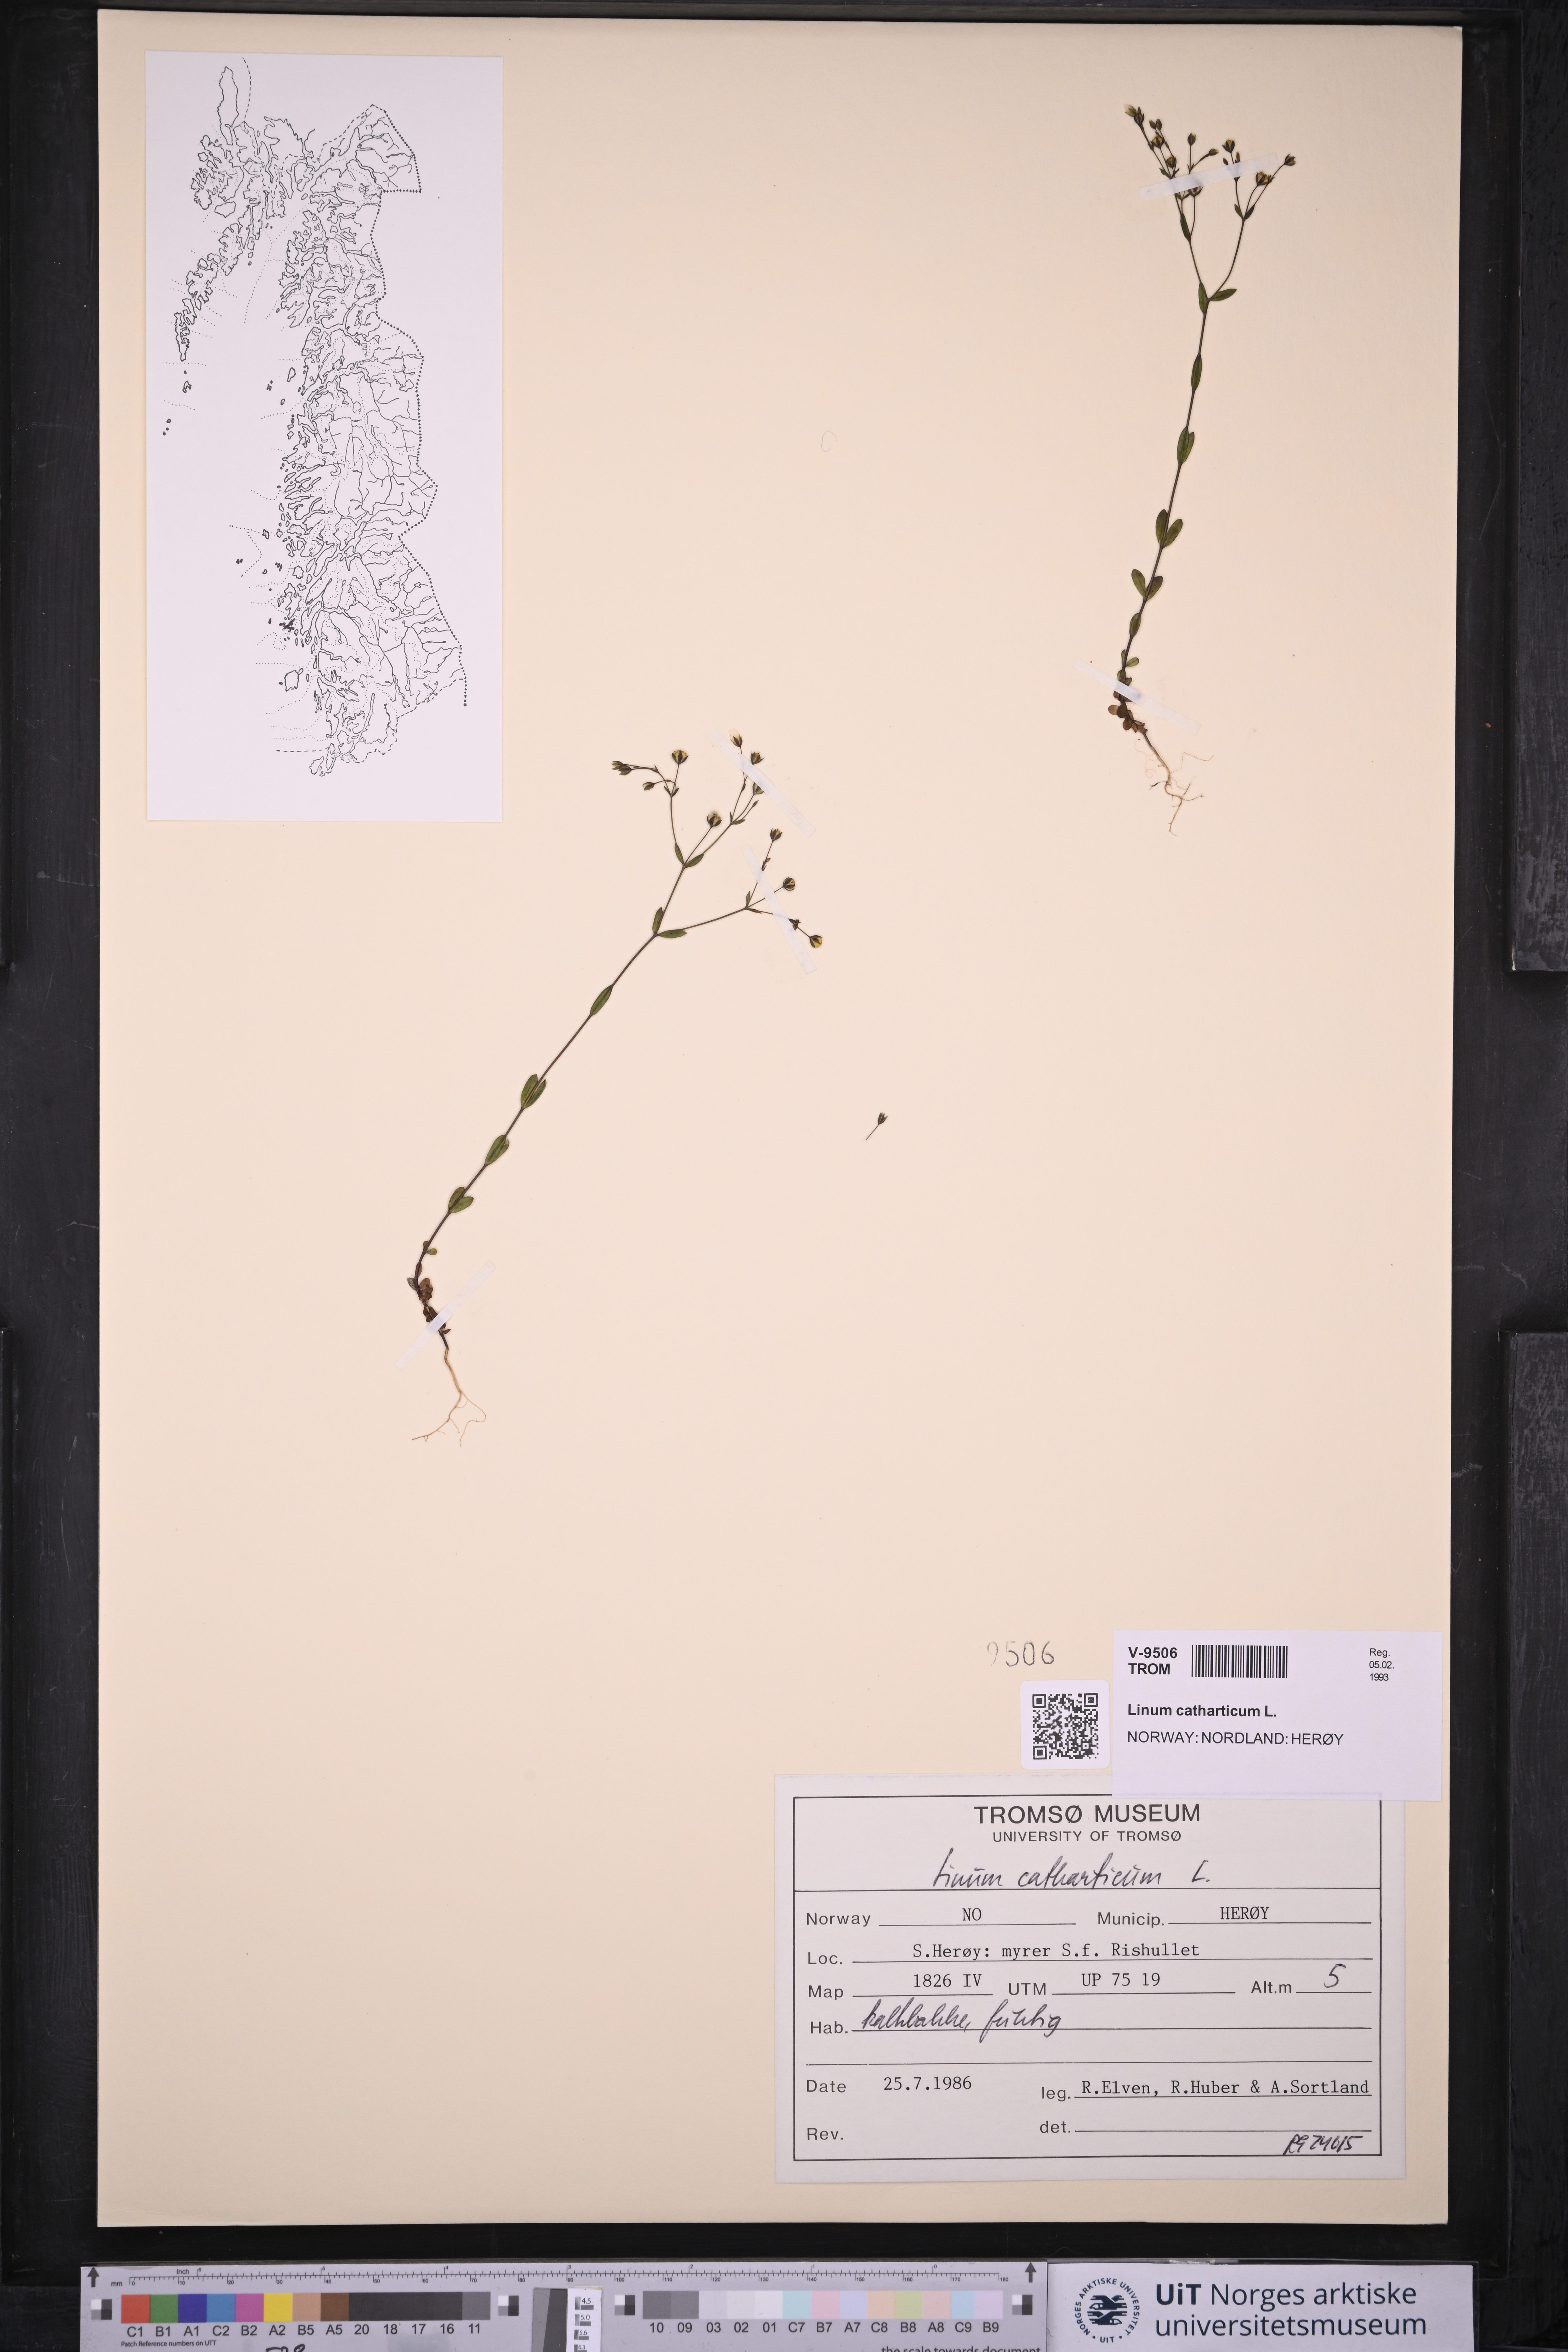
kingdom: Plantae
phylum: Tracheophyta
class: Magnoliopsida
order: Malpighiales
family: Linaceae
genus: Linum
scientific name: Linum catharticum
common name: Fairy flax
